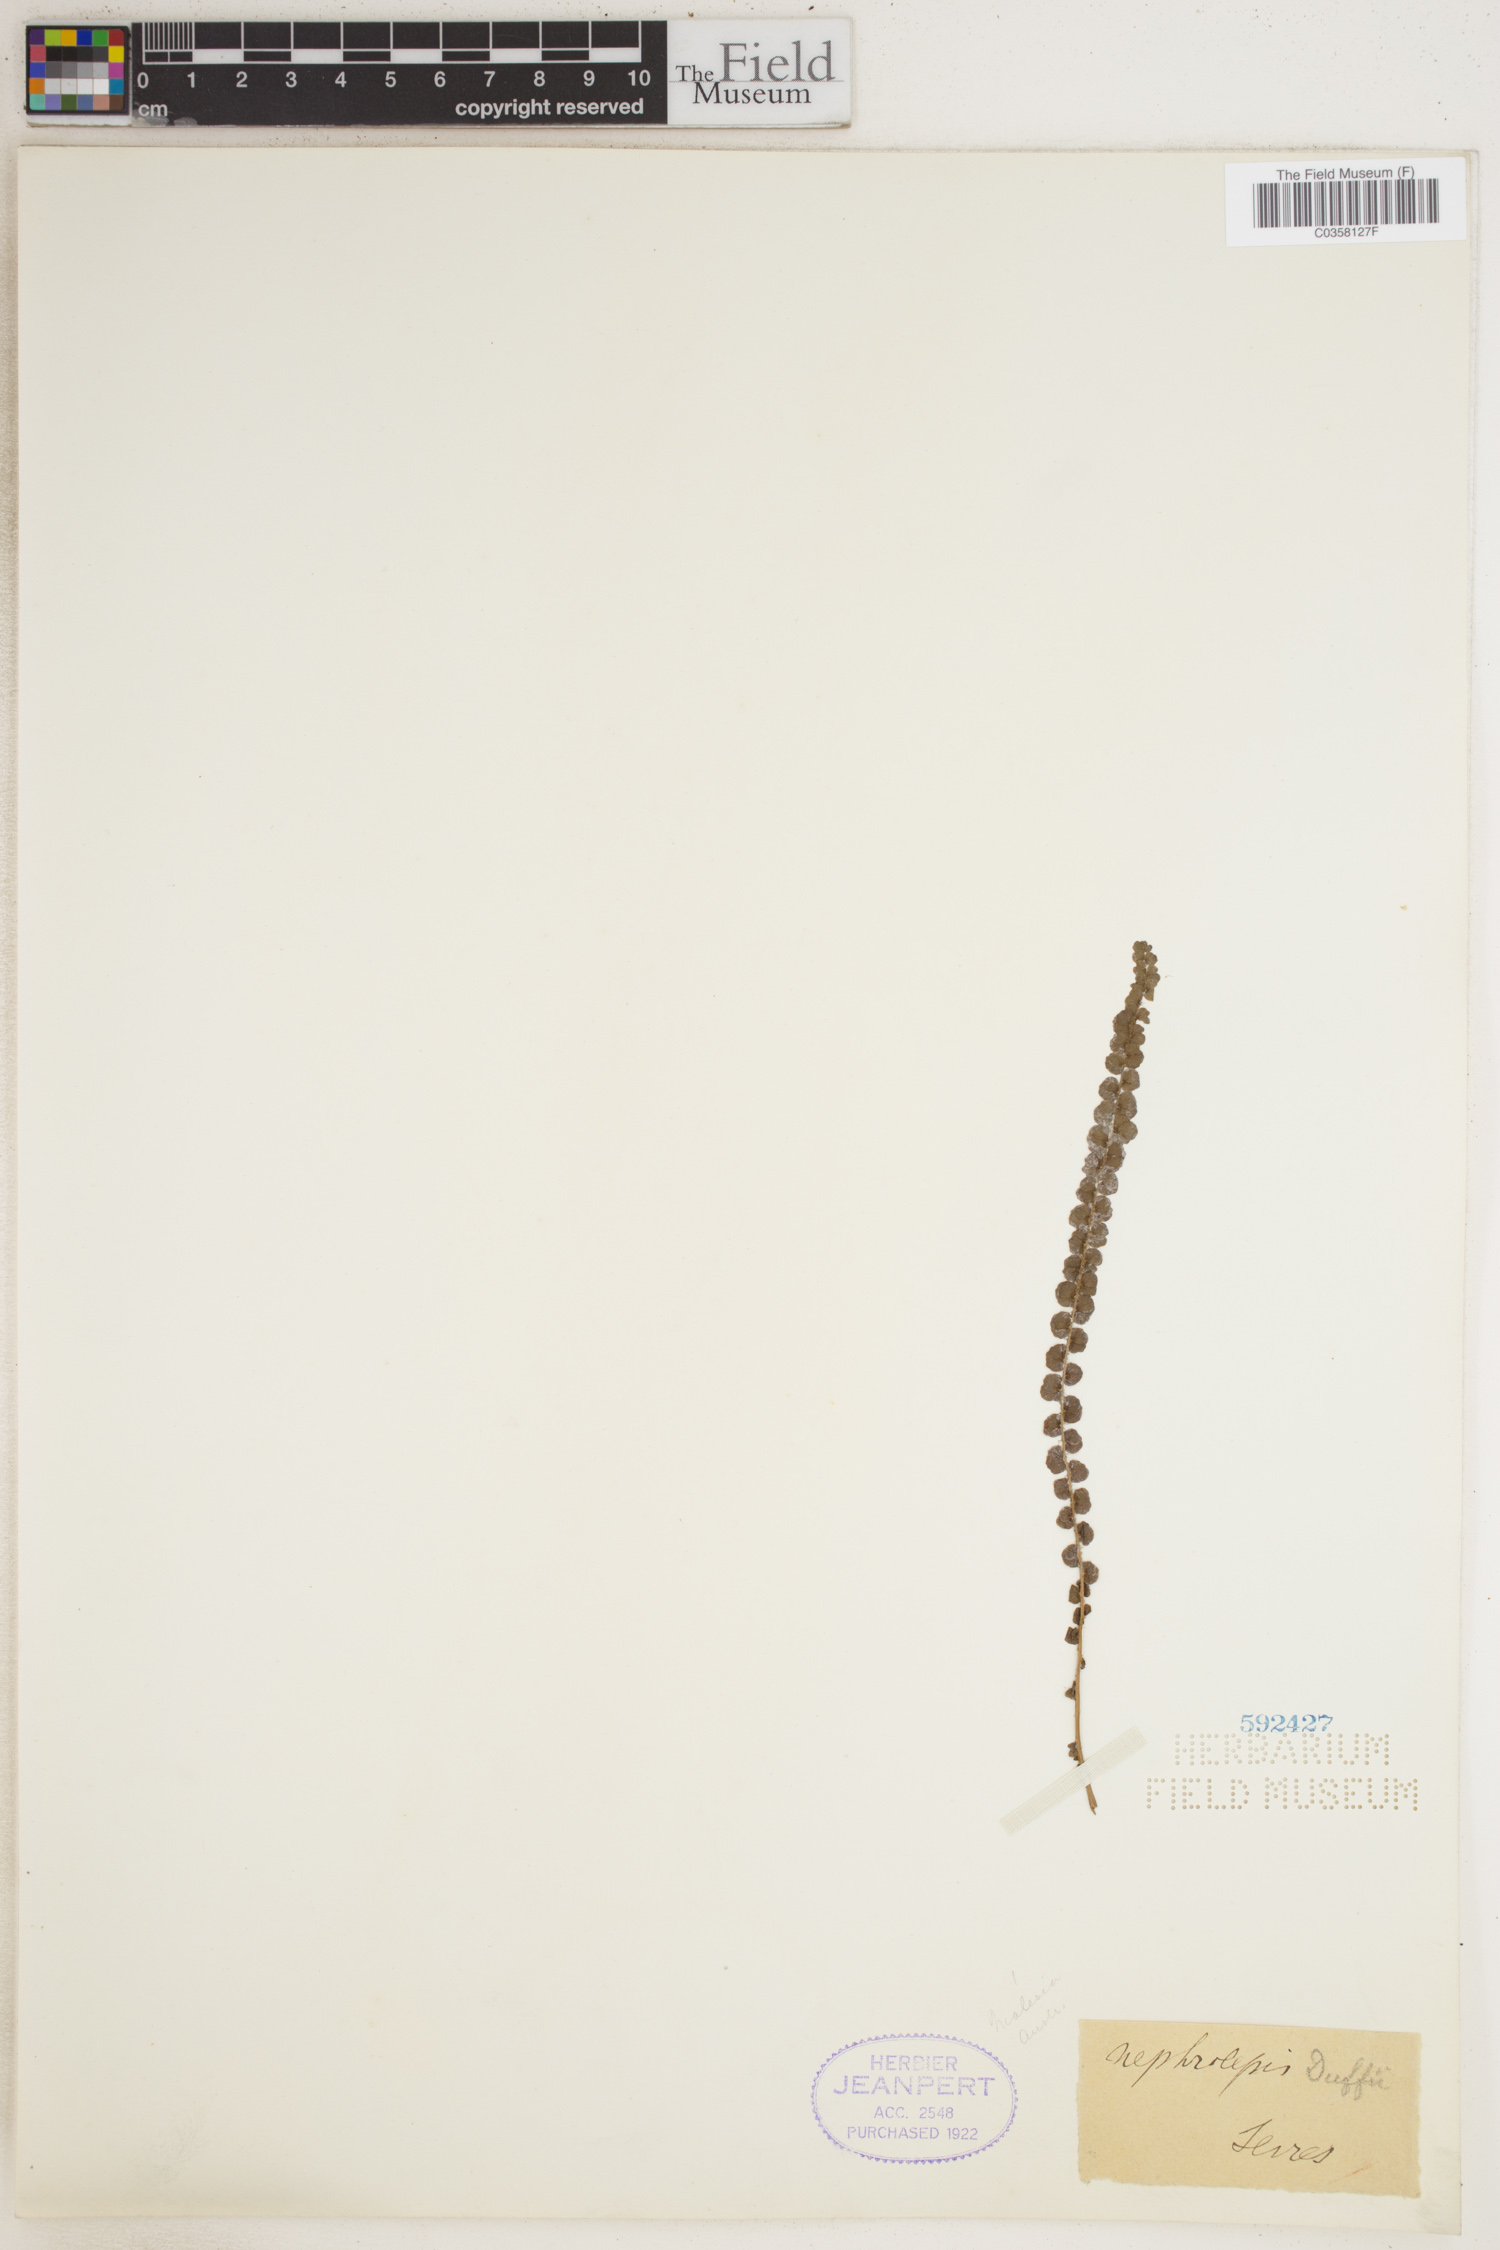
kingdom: Plantae
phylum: Tracheophyta
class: Polypodiopsida
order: Polypodiales
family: Nephrolepidaceae
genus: Nephrolepis
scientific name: Nephrolepis hirsutula
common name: Asian sword fern
